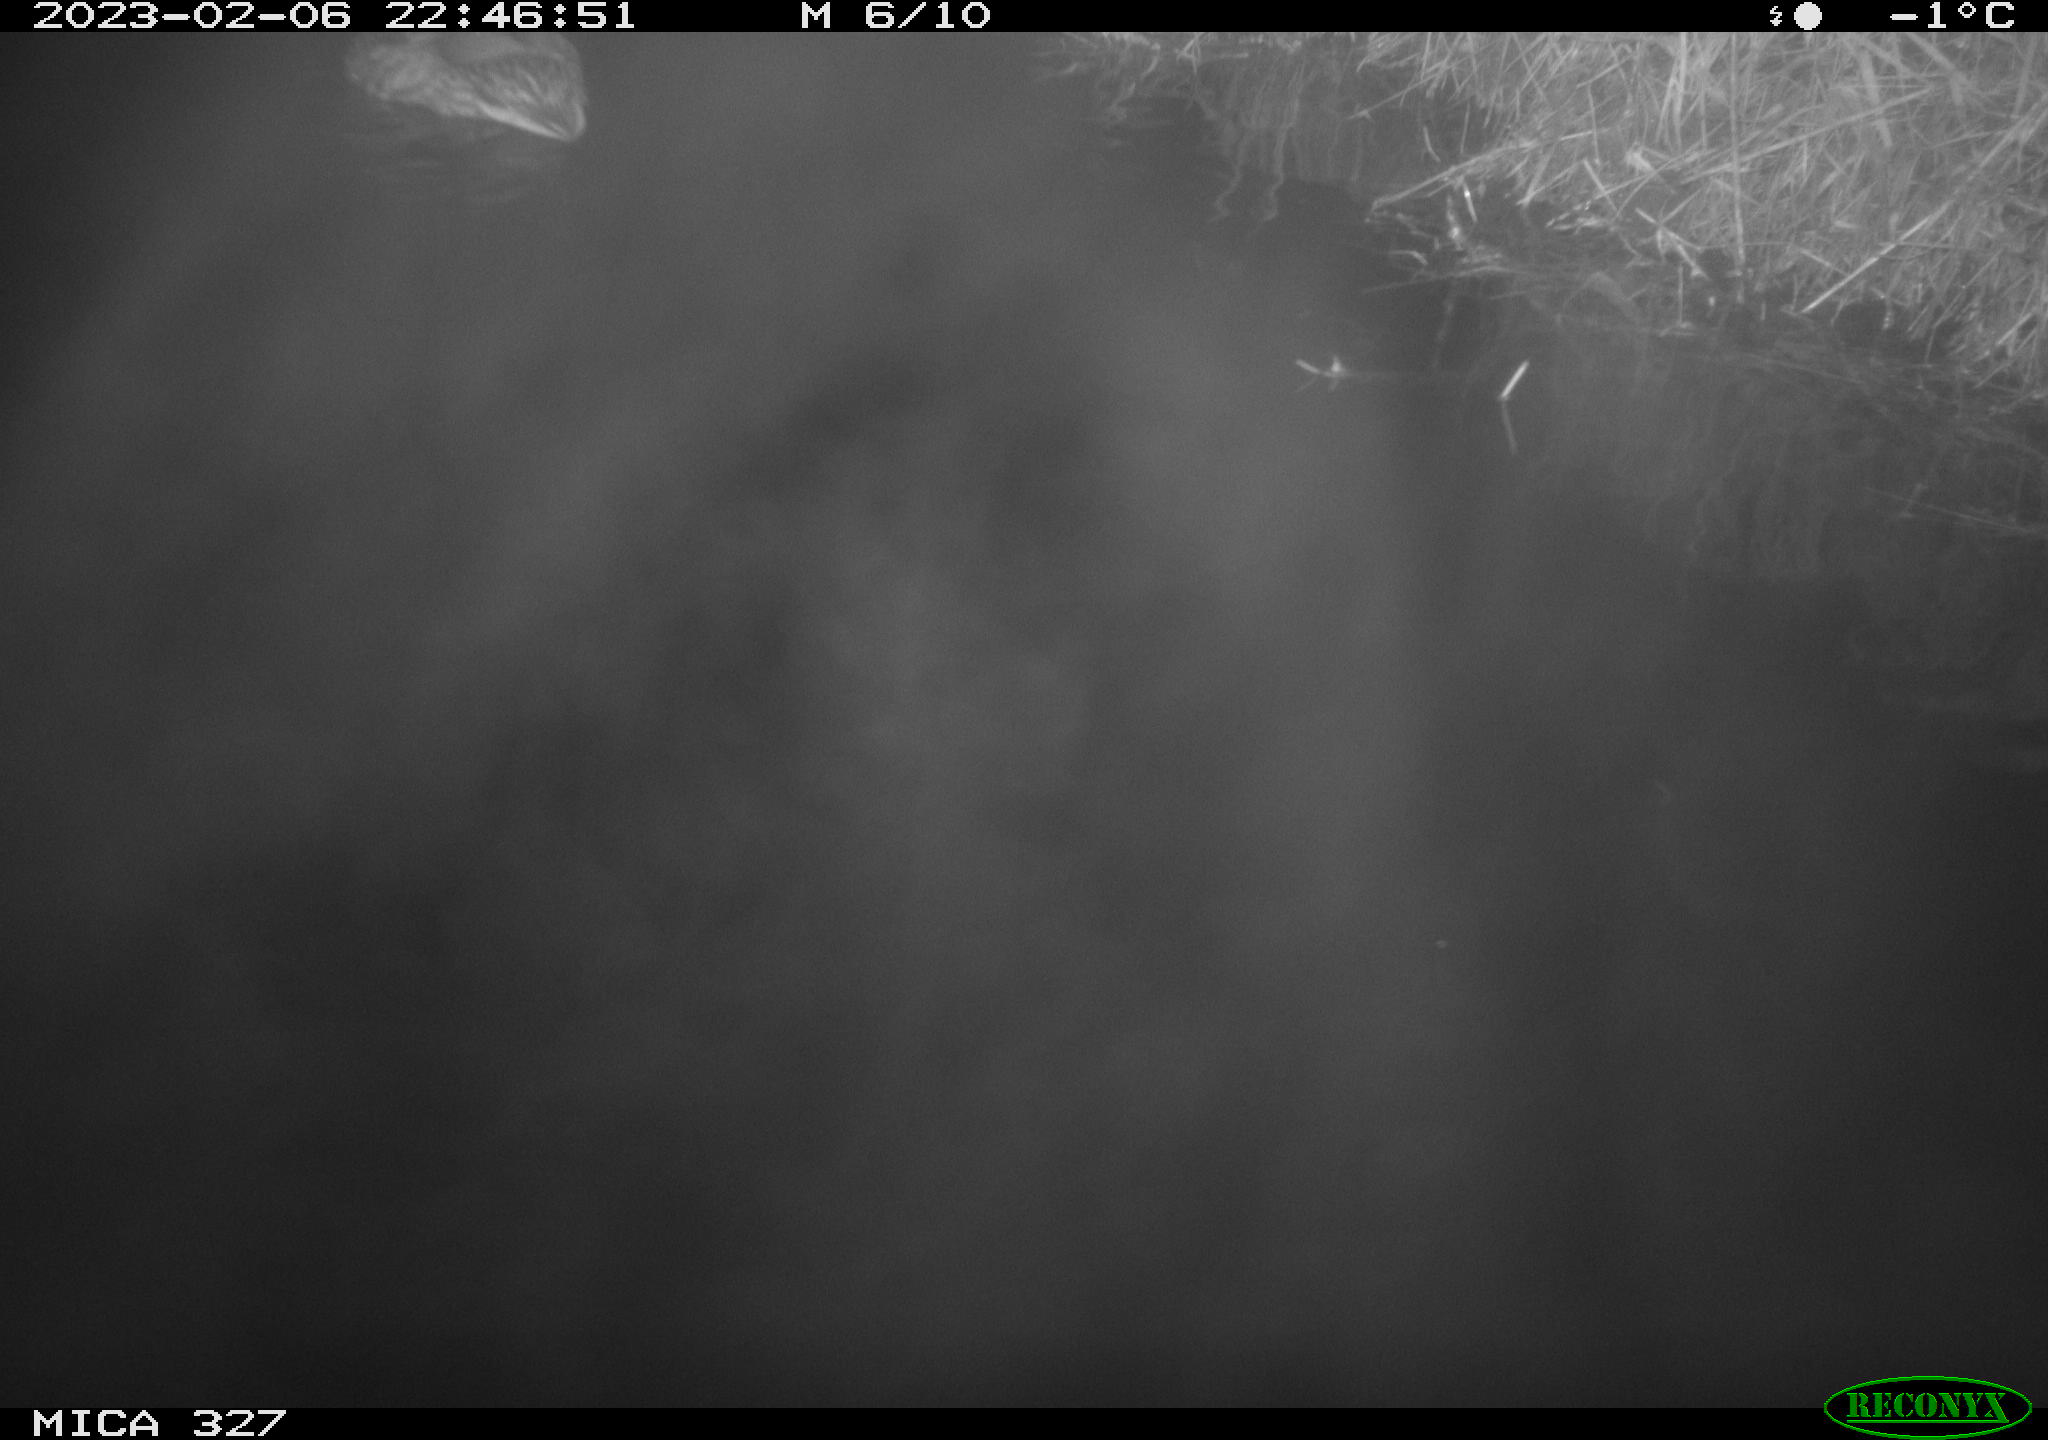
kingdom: Animalia
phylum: Chordata
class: Aves
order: Anseriformes
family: Anatidae
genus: Anas
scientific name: Anas
